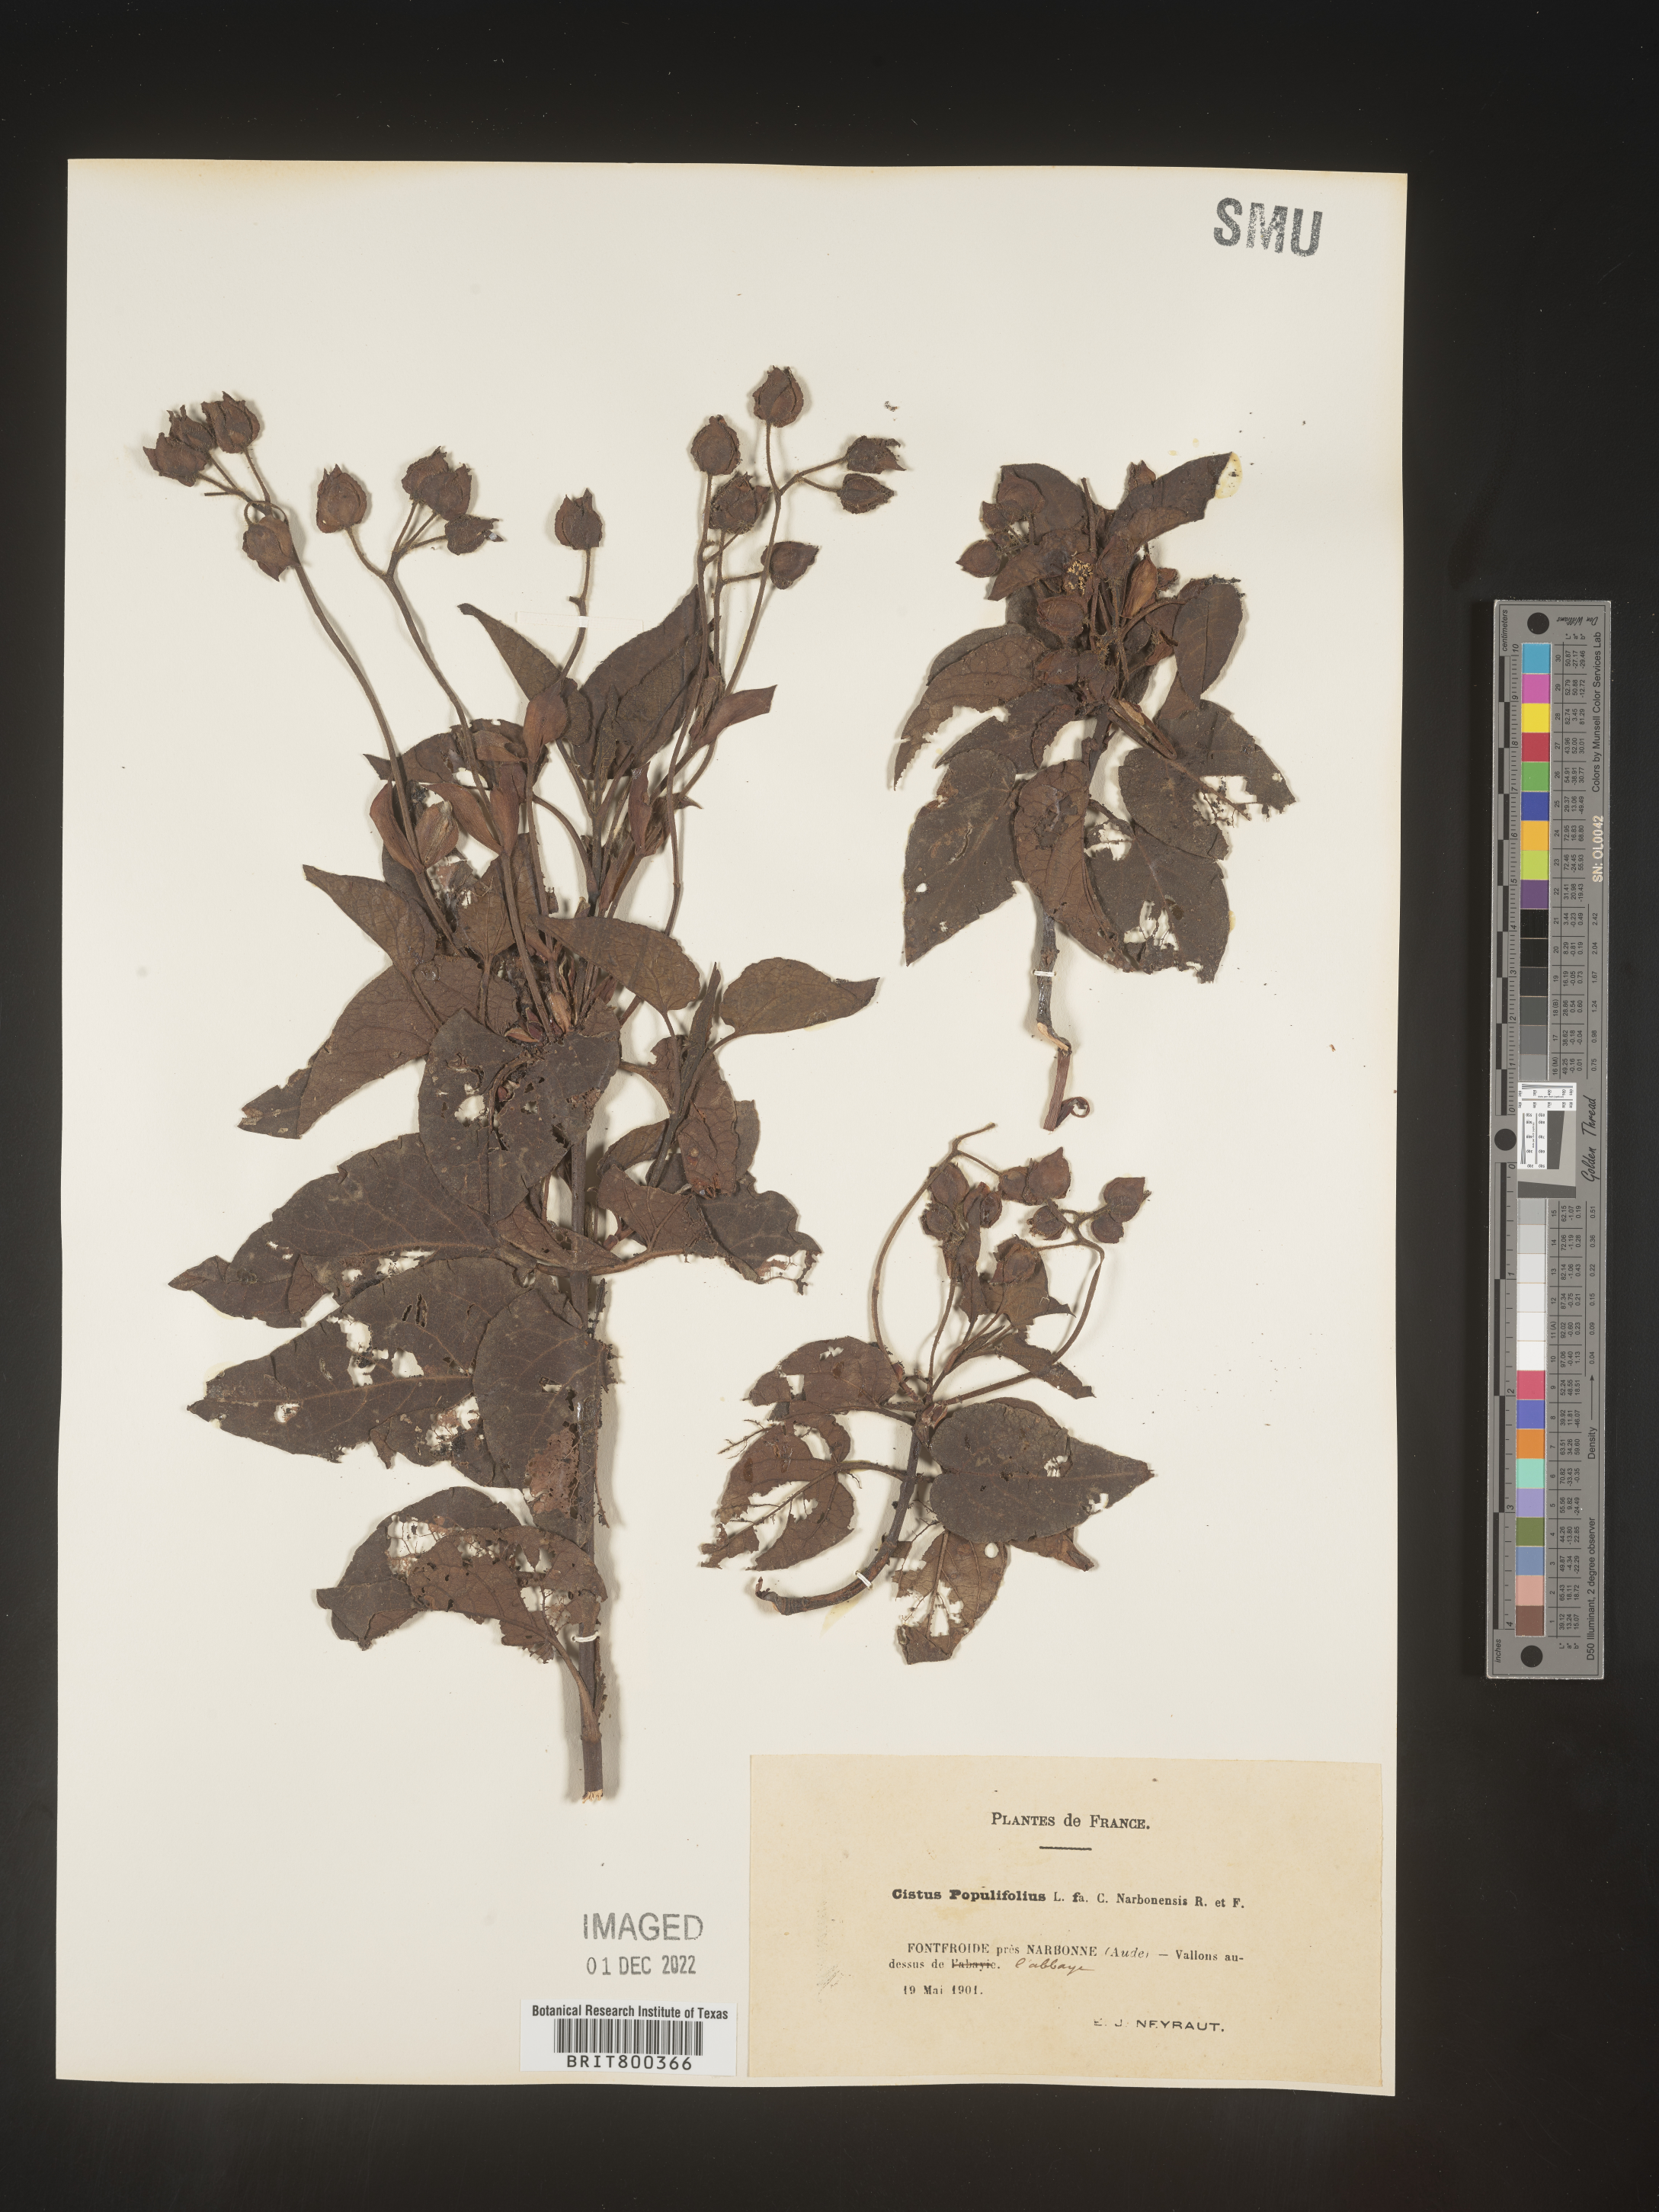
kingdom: Plantae
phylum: Tracheophyta
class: Magnoliopsida
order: Malvales
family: Cistaceae
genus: Cistus
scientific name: Cistus
